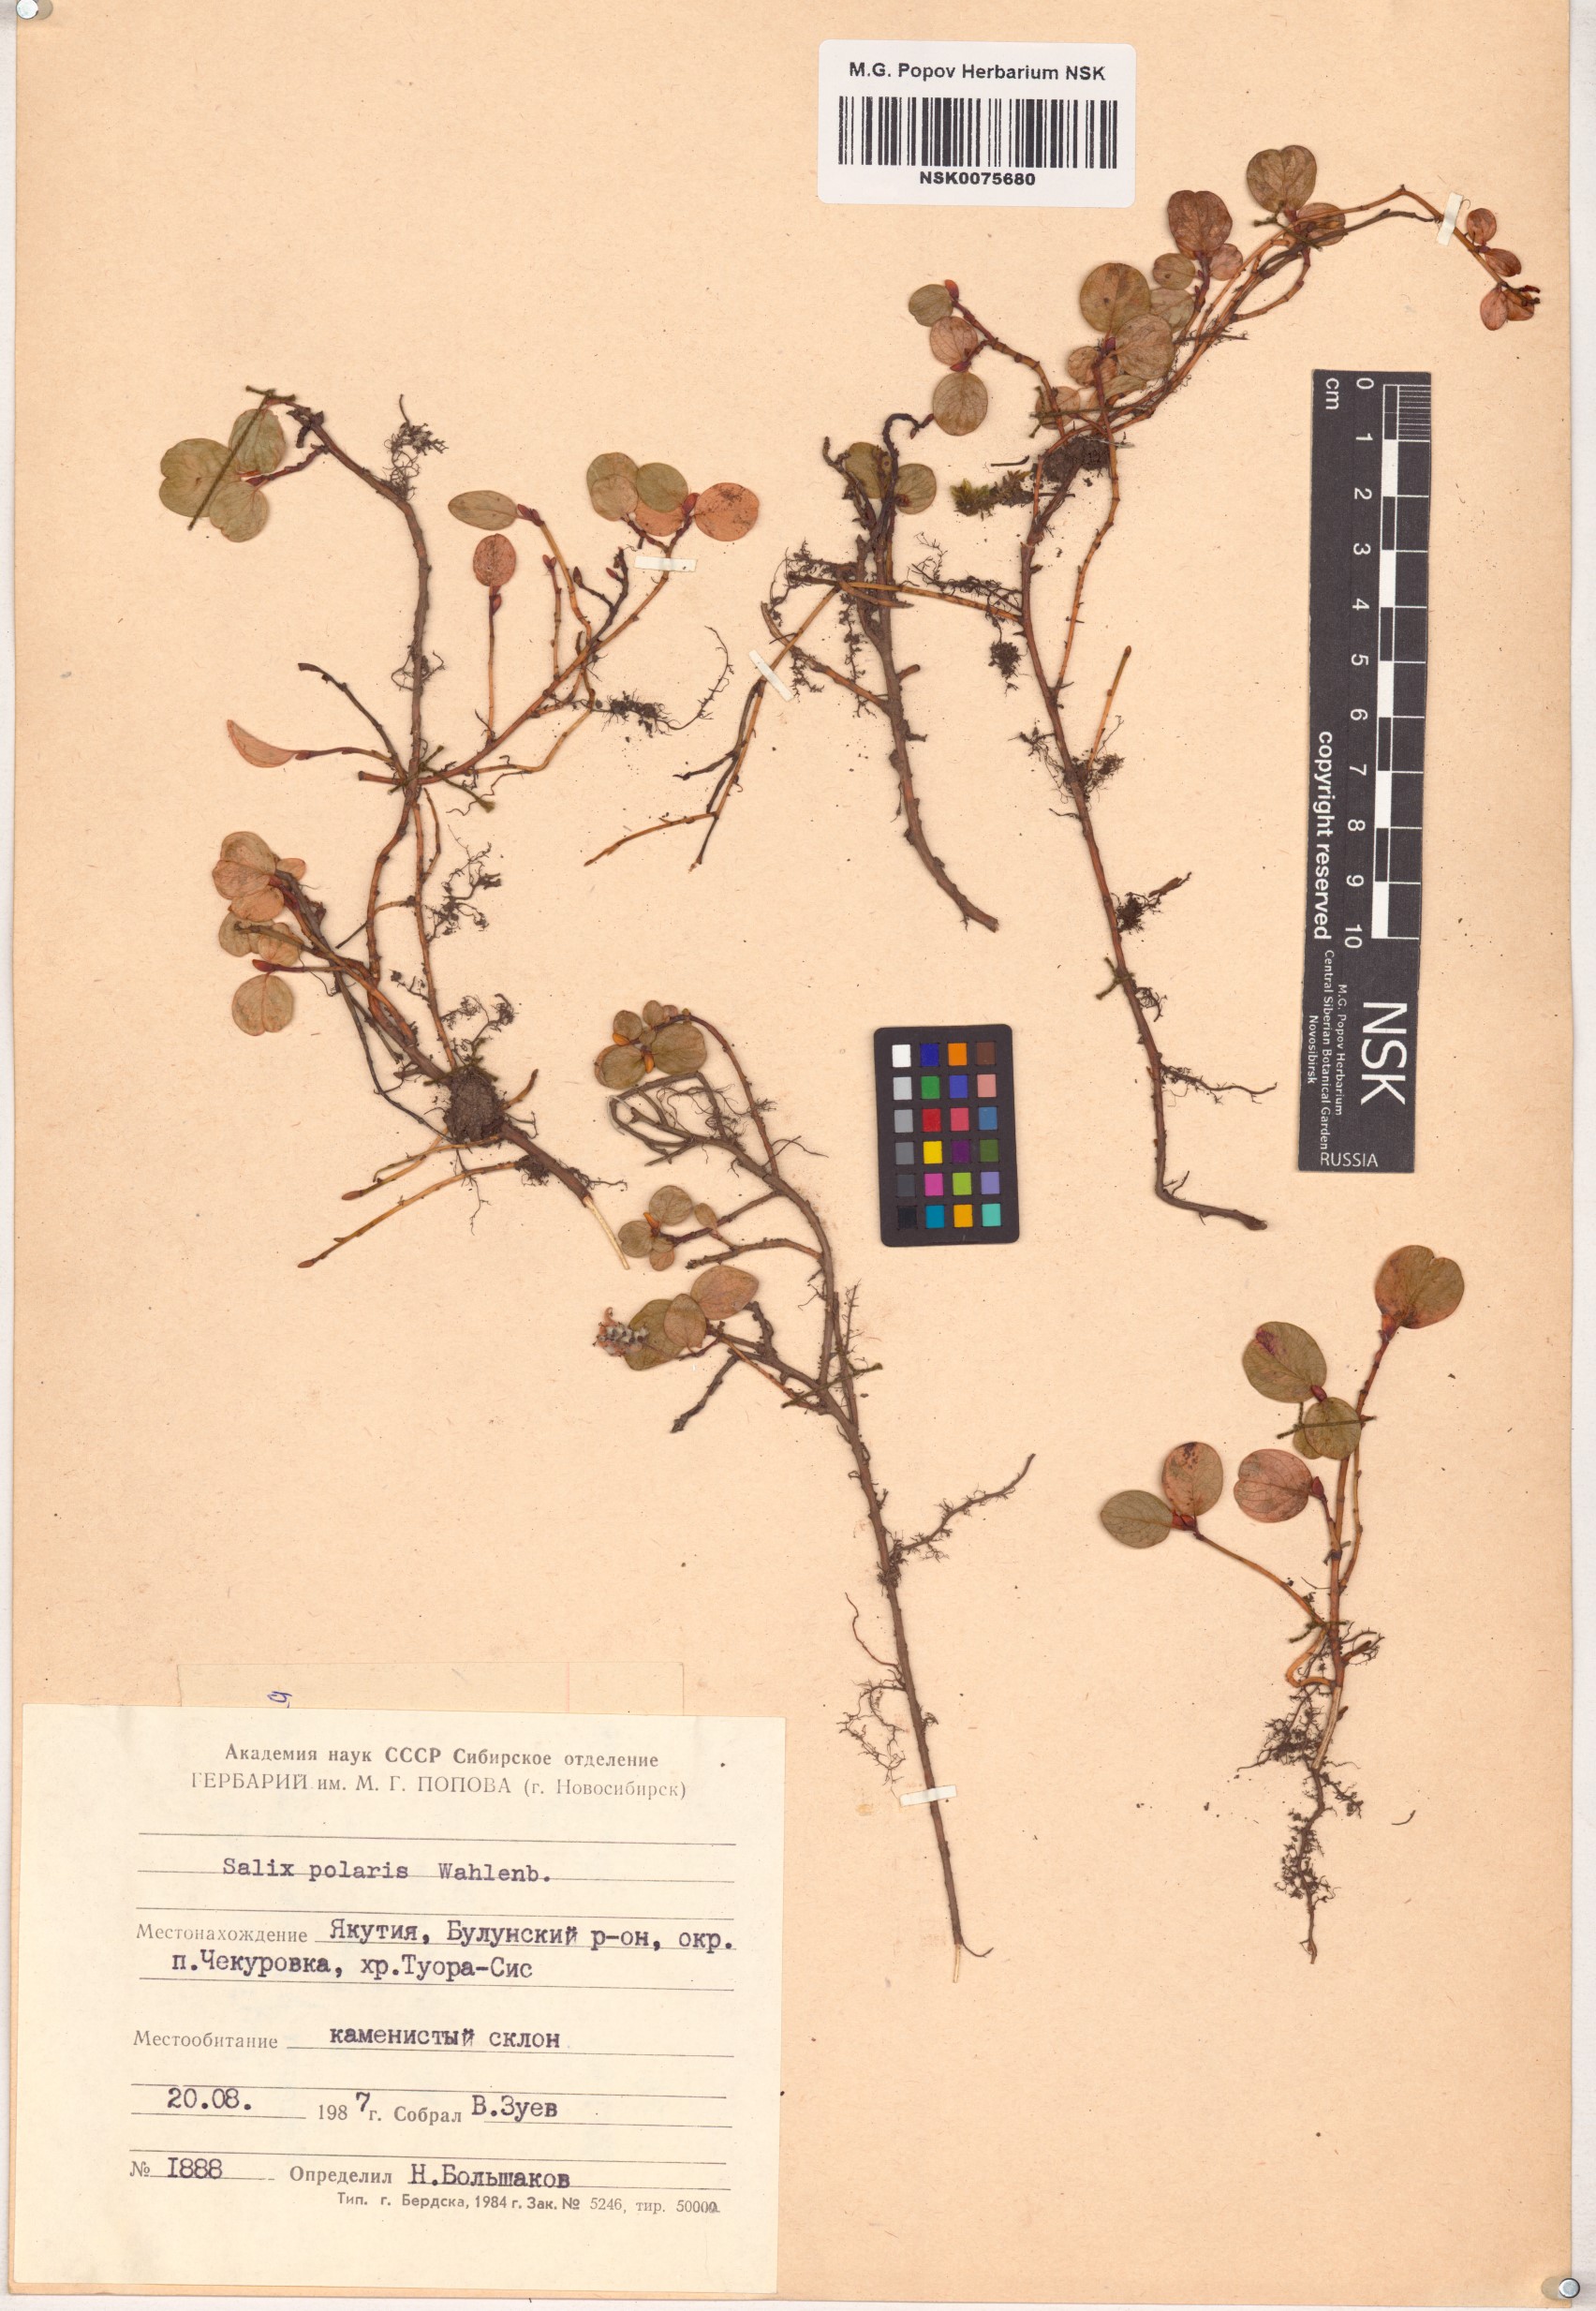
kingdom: Plantae
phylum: Tracheophyta
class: Magnoliopsida
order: Malpighiales
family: Salicaceae
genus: Salix
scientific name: Salix polaris
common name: Polar willow
